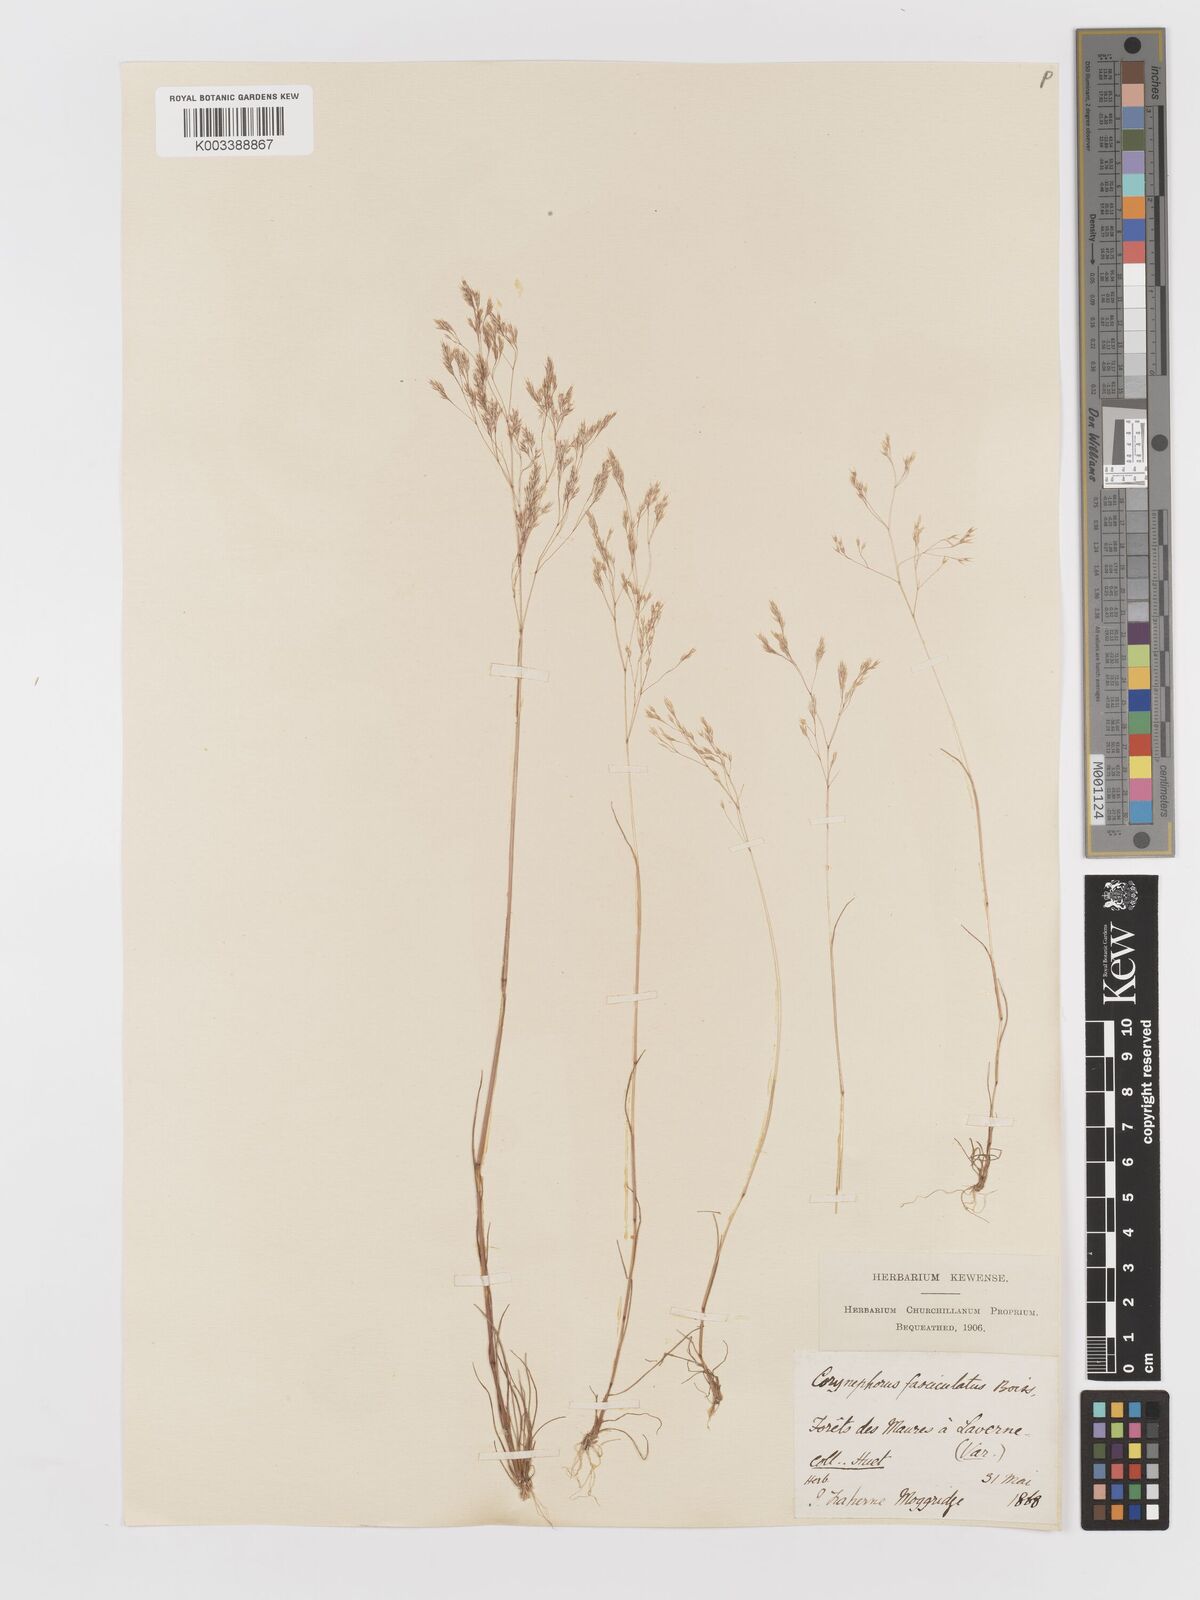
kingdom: Plantae
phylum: Tracheophyta
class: Liliopsida
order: Poales
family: Poaceae
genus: Corynephorus
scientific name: Corynephorus fasciculatus
